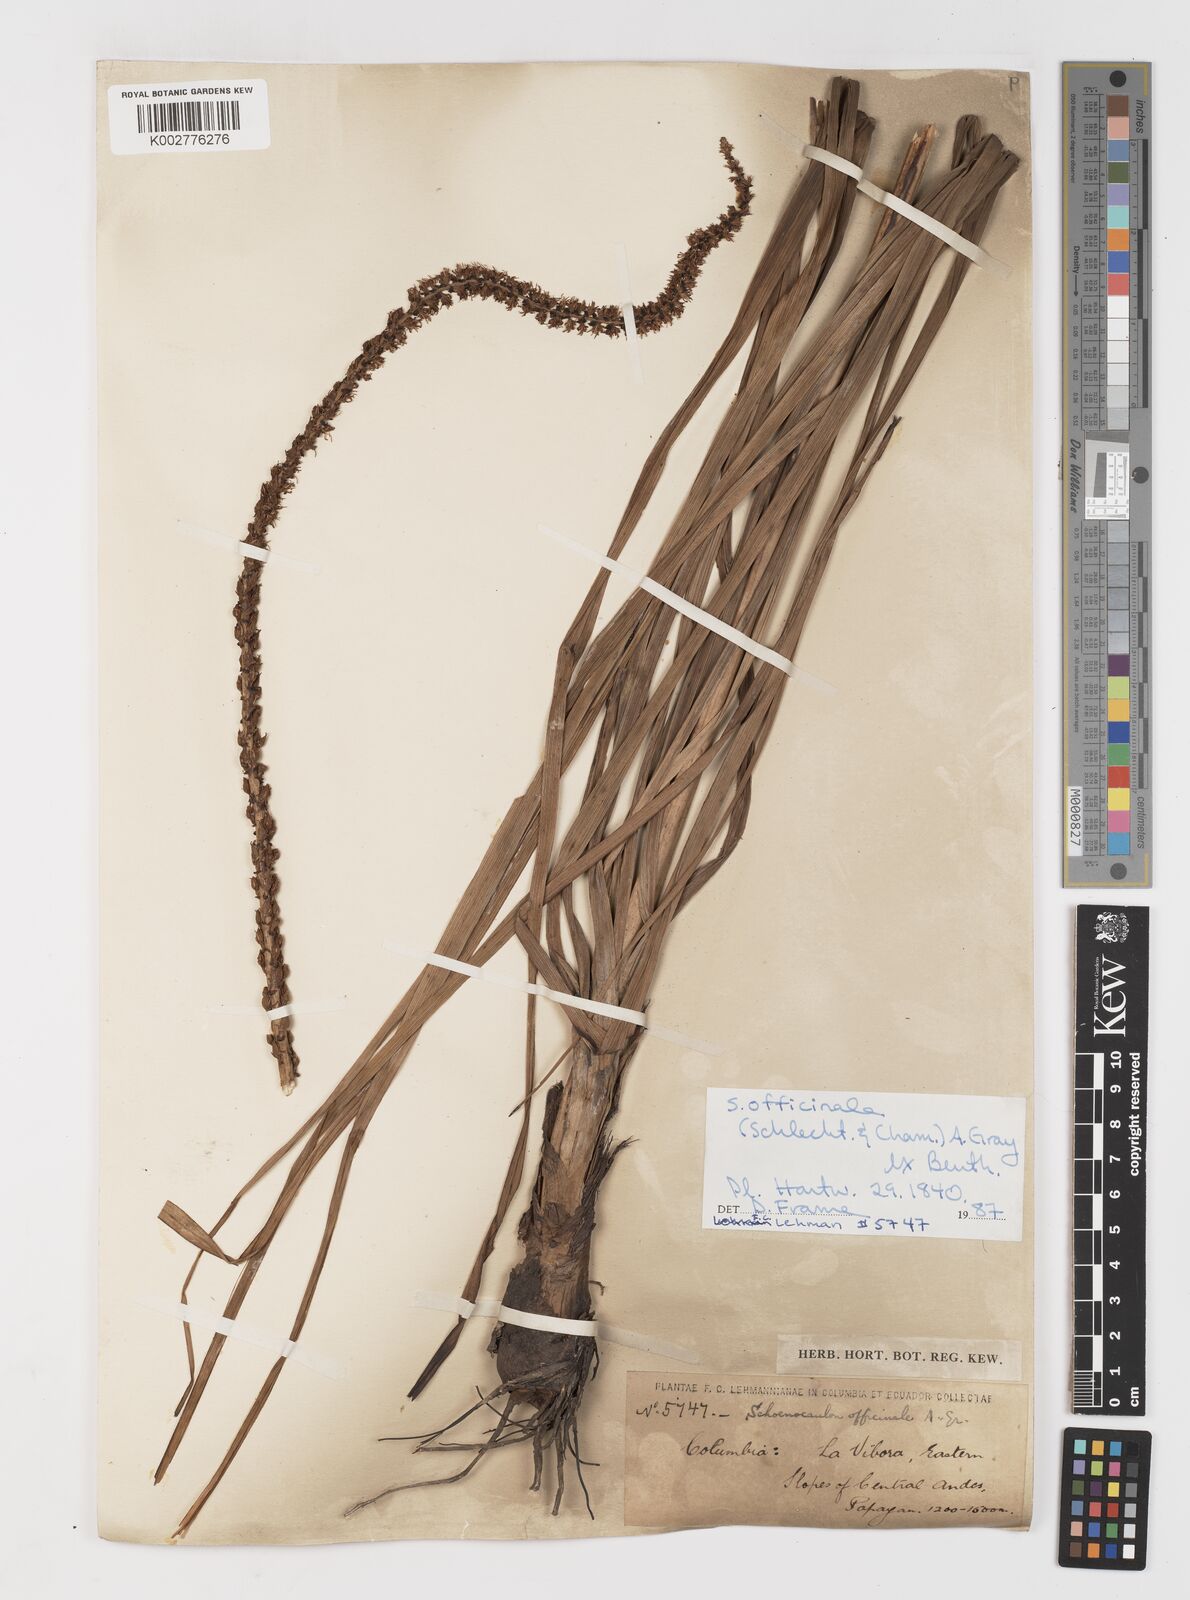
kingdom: Plantae
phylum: Tracheophyta
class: Liliopsida
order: Liliales
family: Melanthiaceae
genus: Schoenocaulon
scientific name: Schoenocaulon officinale
